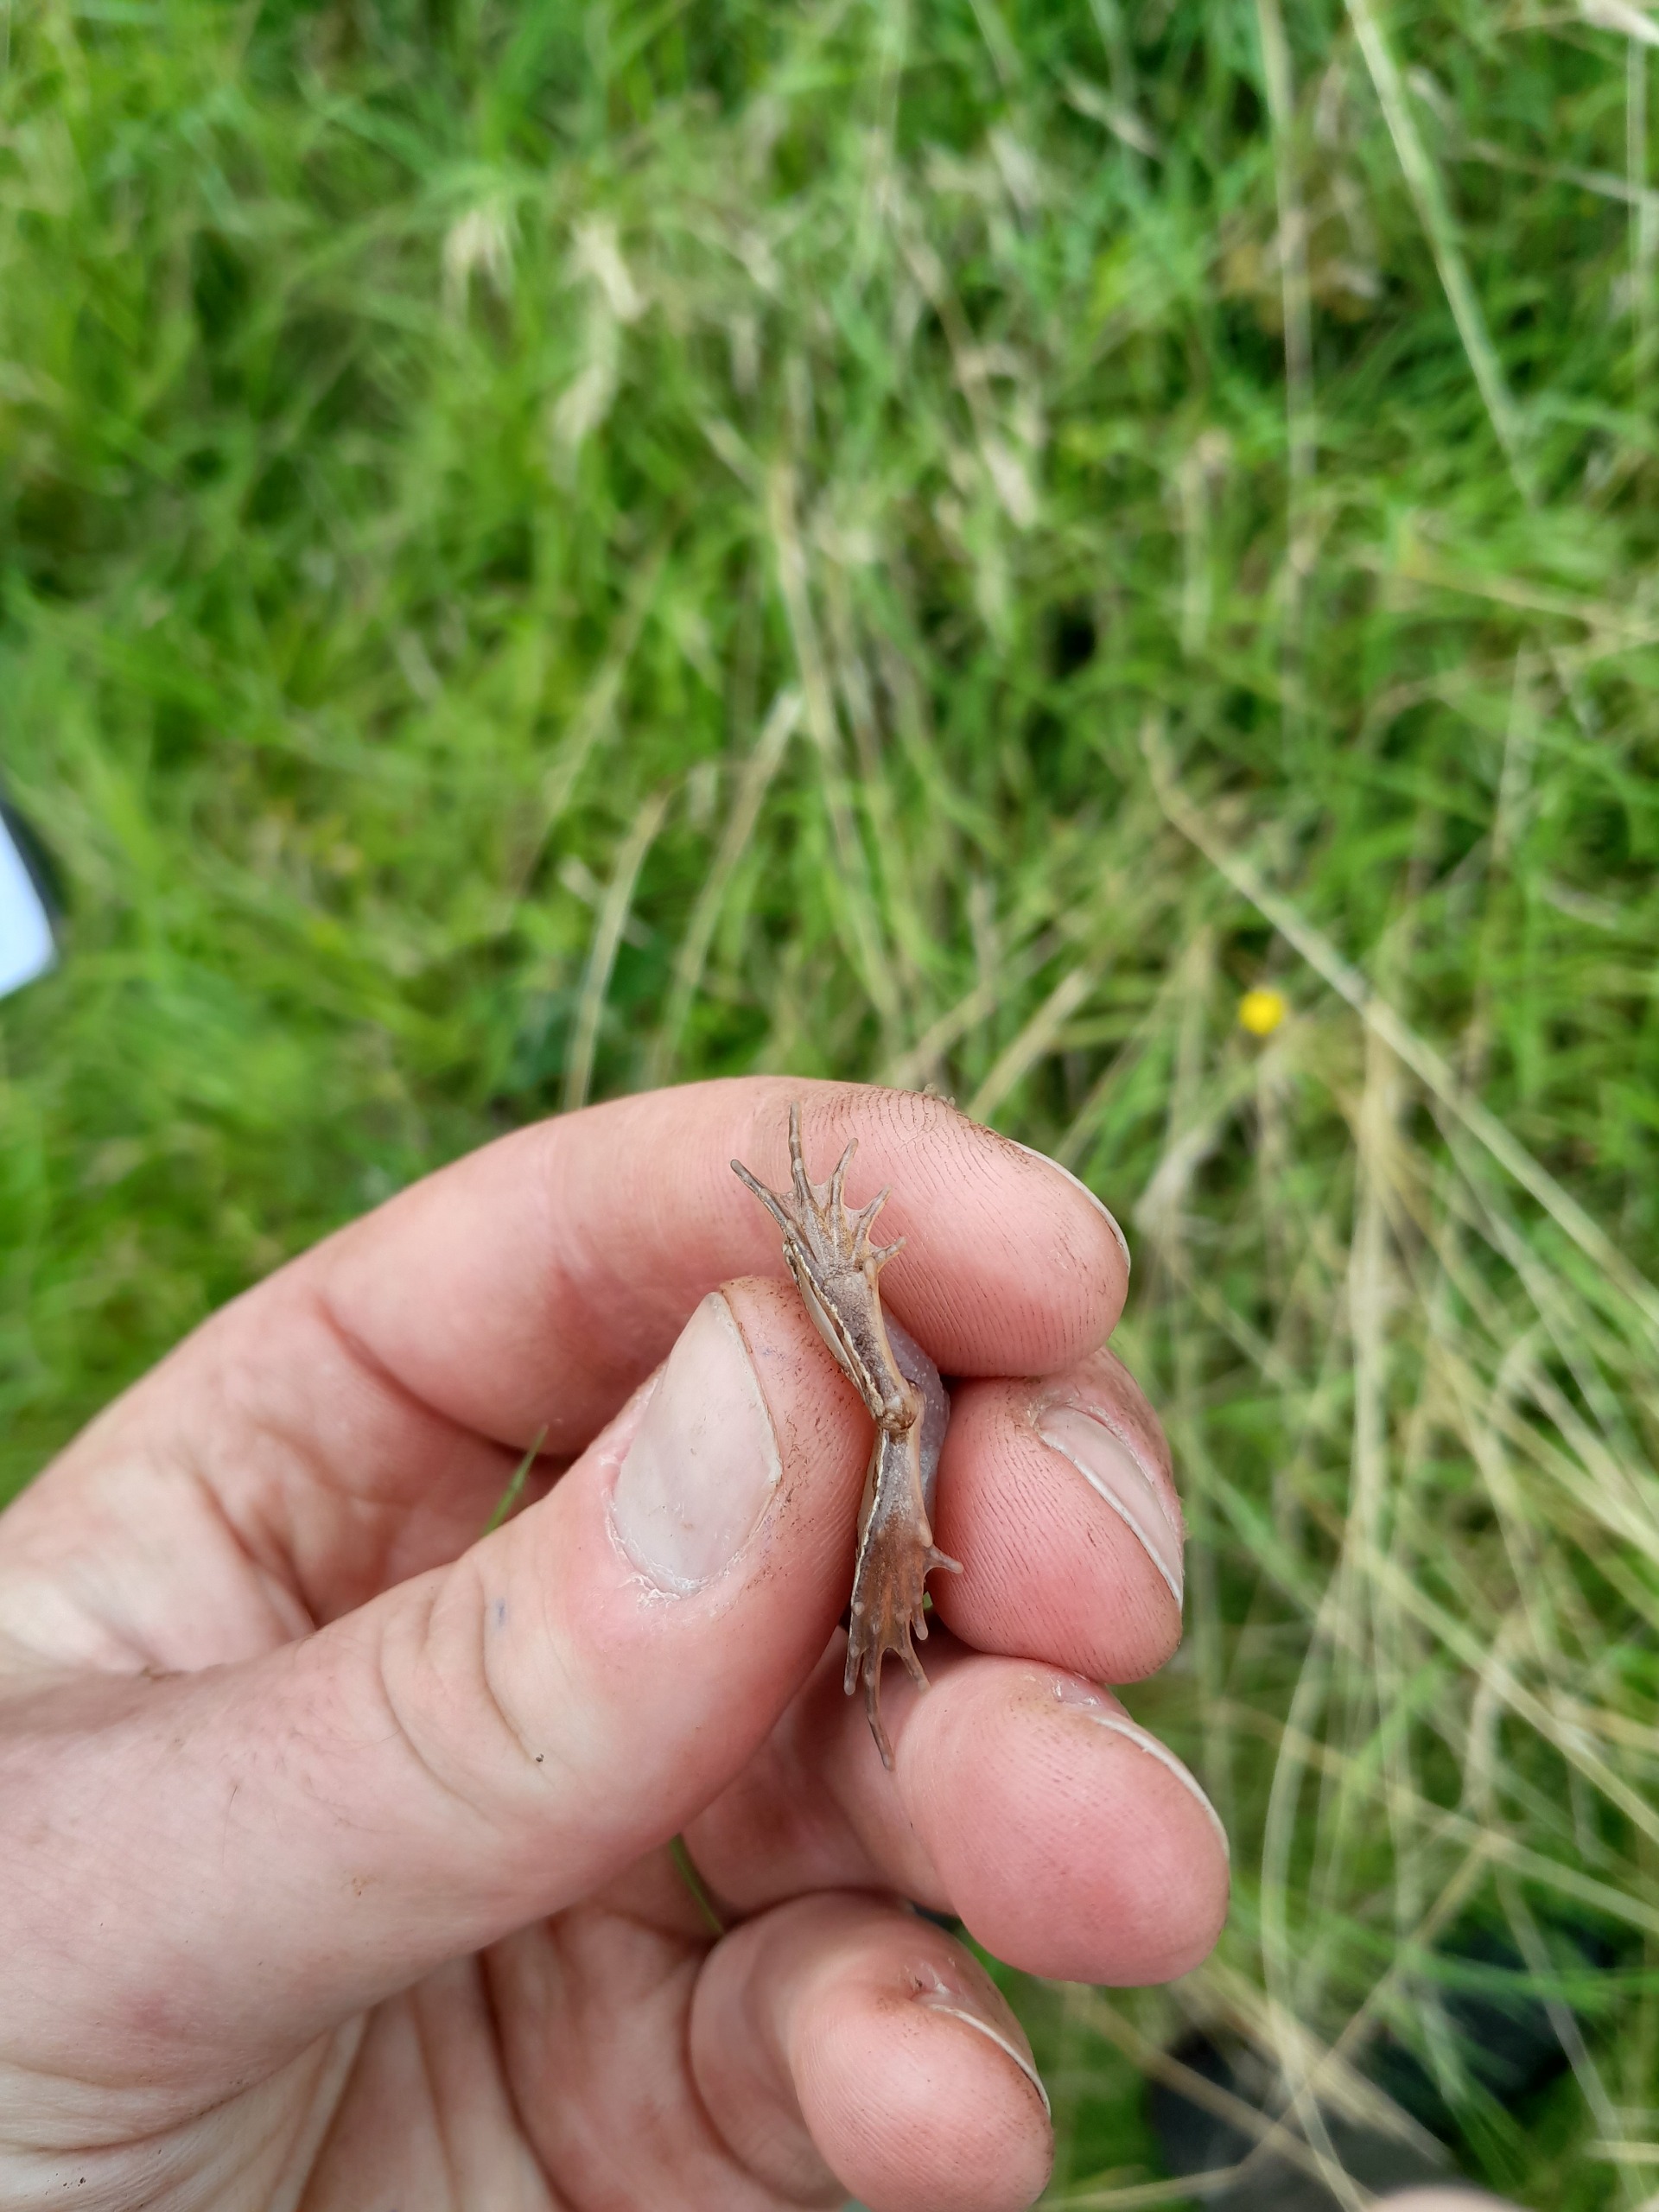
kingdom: Animalia
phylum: Chordata
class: Amphibia
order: Anura
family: Ranidae
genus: Rana
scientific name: Rana arvalis
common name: Spidssnudet frø
